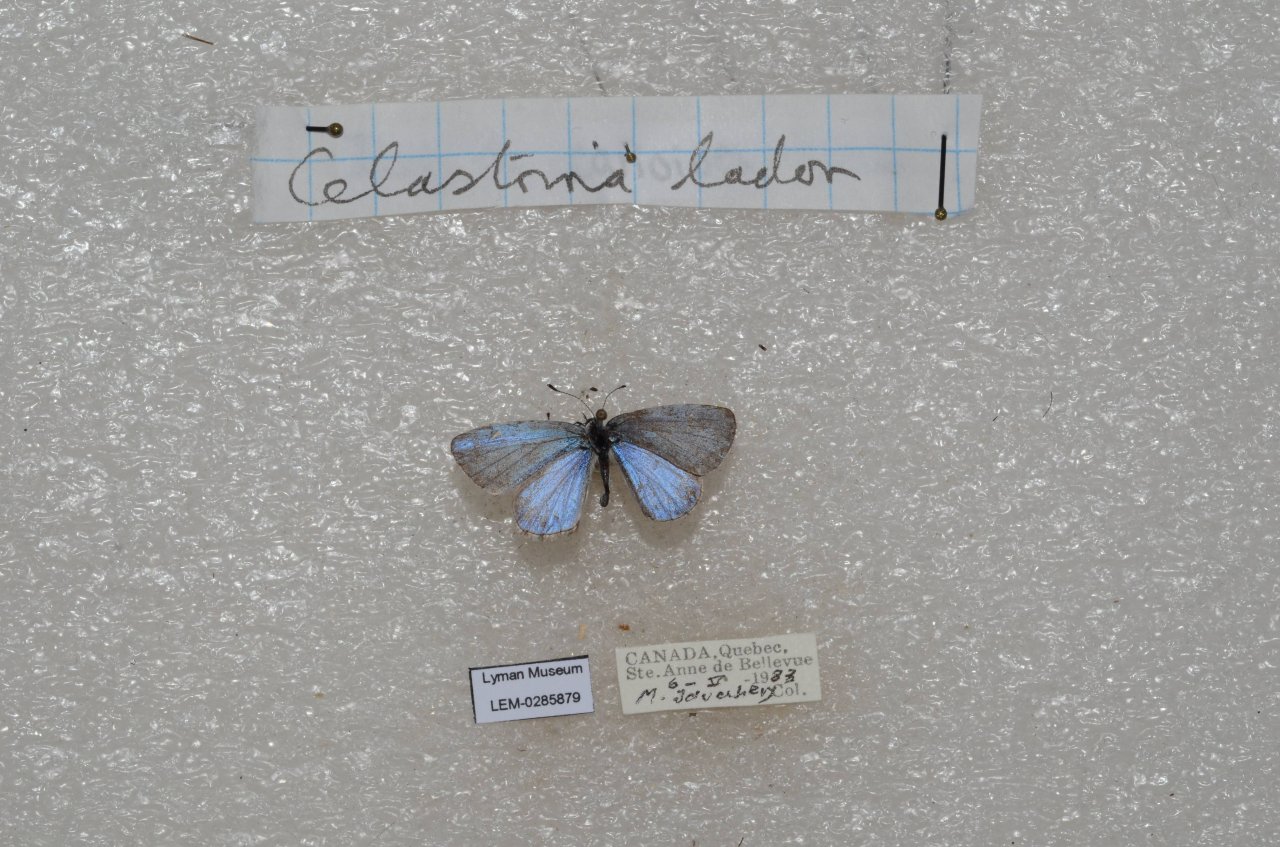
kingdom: Animalia
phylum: Arthropoda
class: Insecta
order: Lepidoptera
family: Lycaenidae
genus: Celastrina
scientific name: Celastrina lucia
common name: Northern Spring Azure
